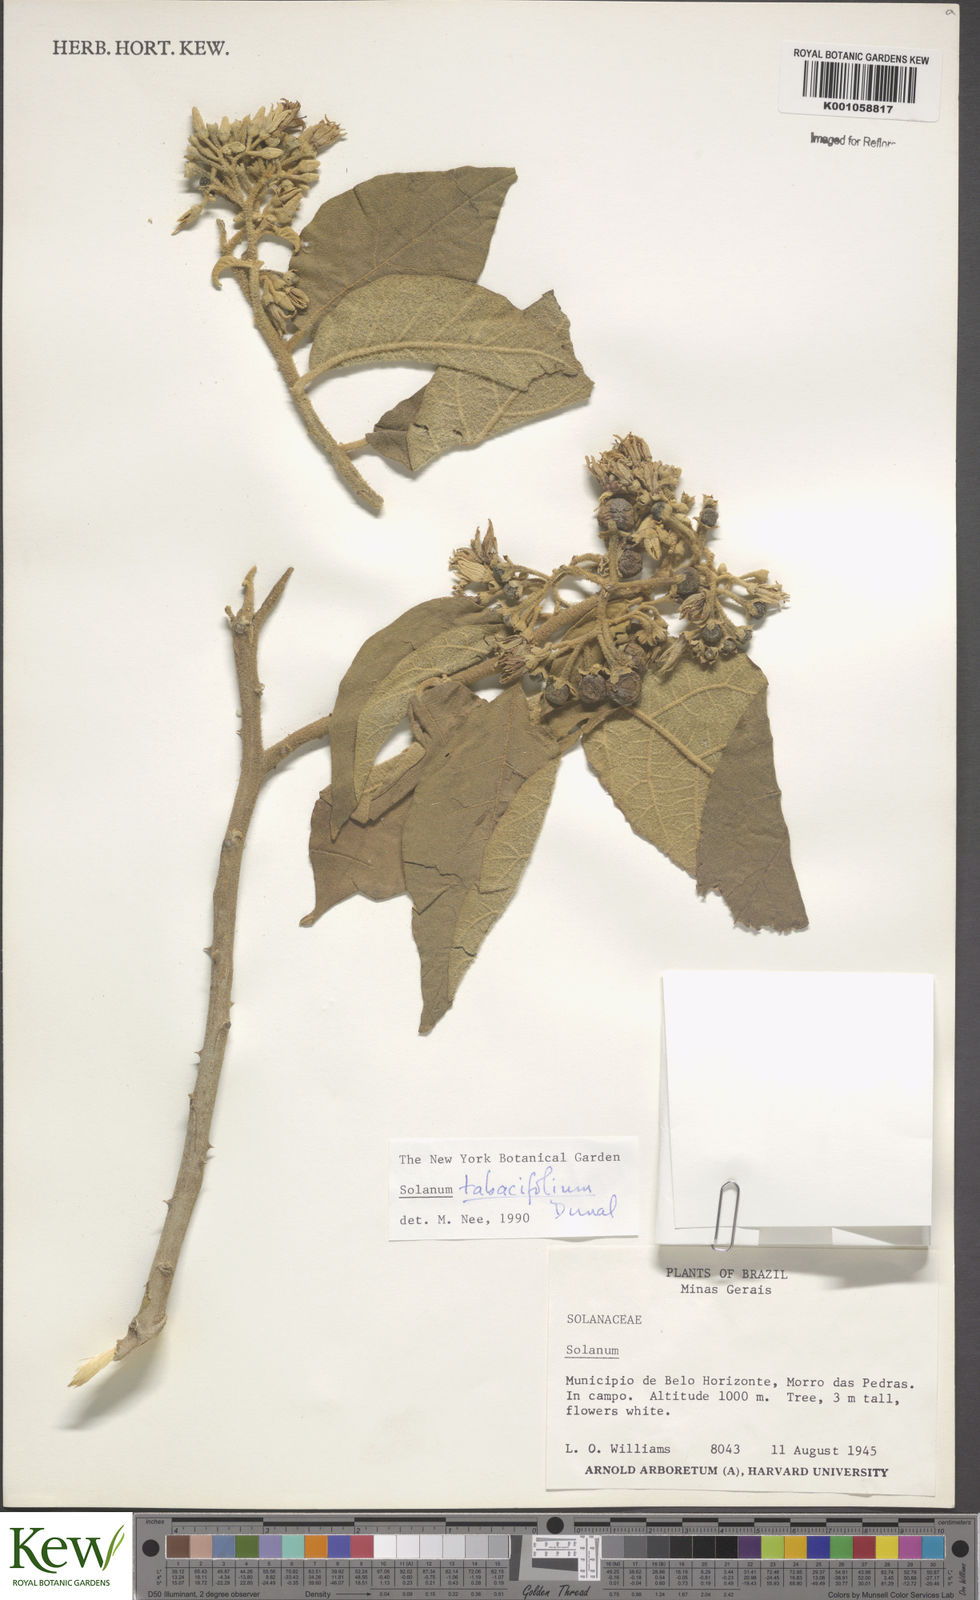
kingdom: Plantae
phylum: Tracheophyta
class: Magnoliopsida
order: Solanales
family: Solanaceae
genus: Solanum
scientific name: Solanum scuticum
